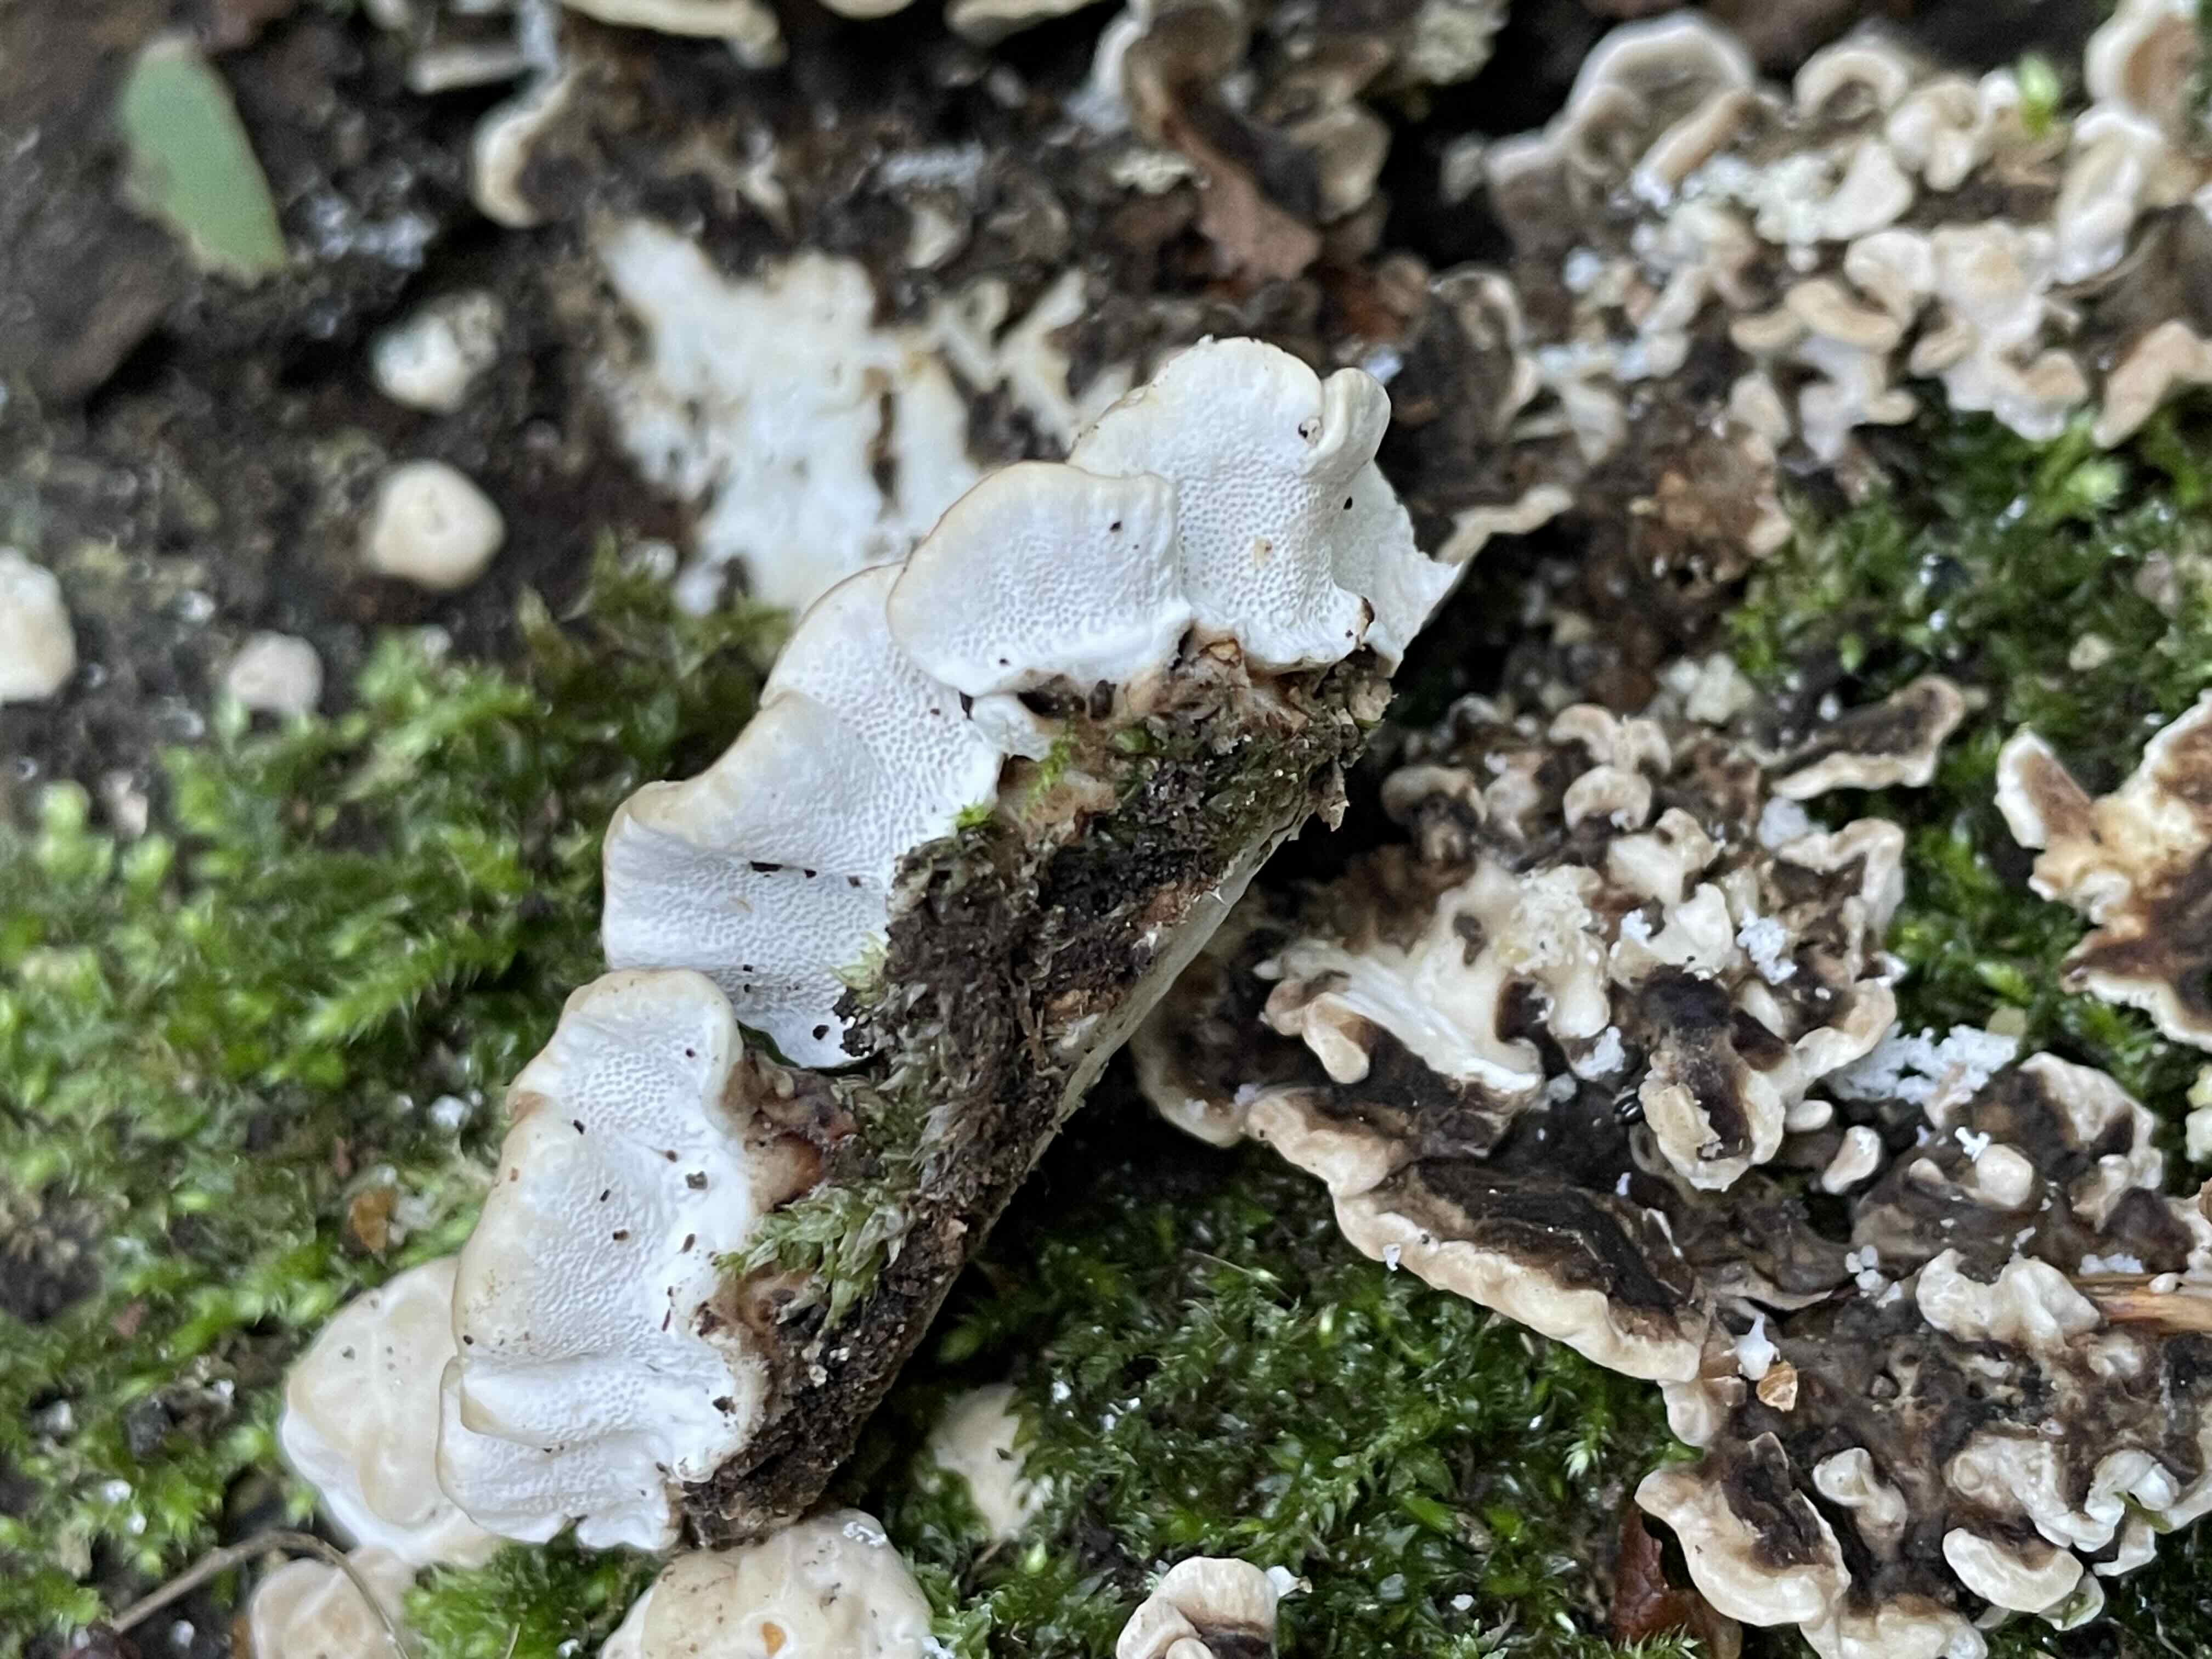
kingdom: Fungi
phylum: Basidiomycota
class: Agaricomycetes
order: Polyporales
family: Polyporaceae
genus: Trametes
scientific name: Trametes versicolor
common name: broget læderporesvamp
